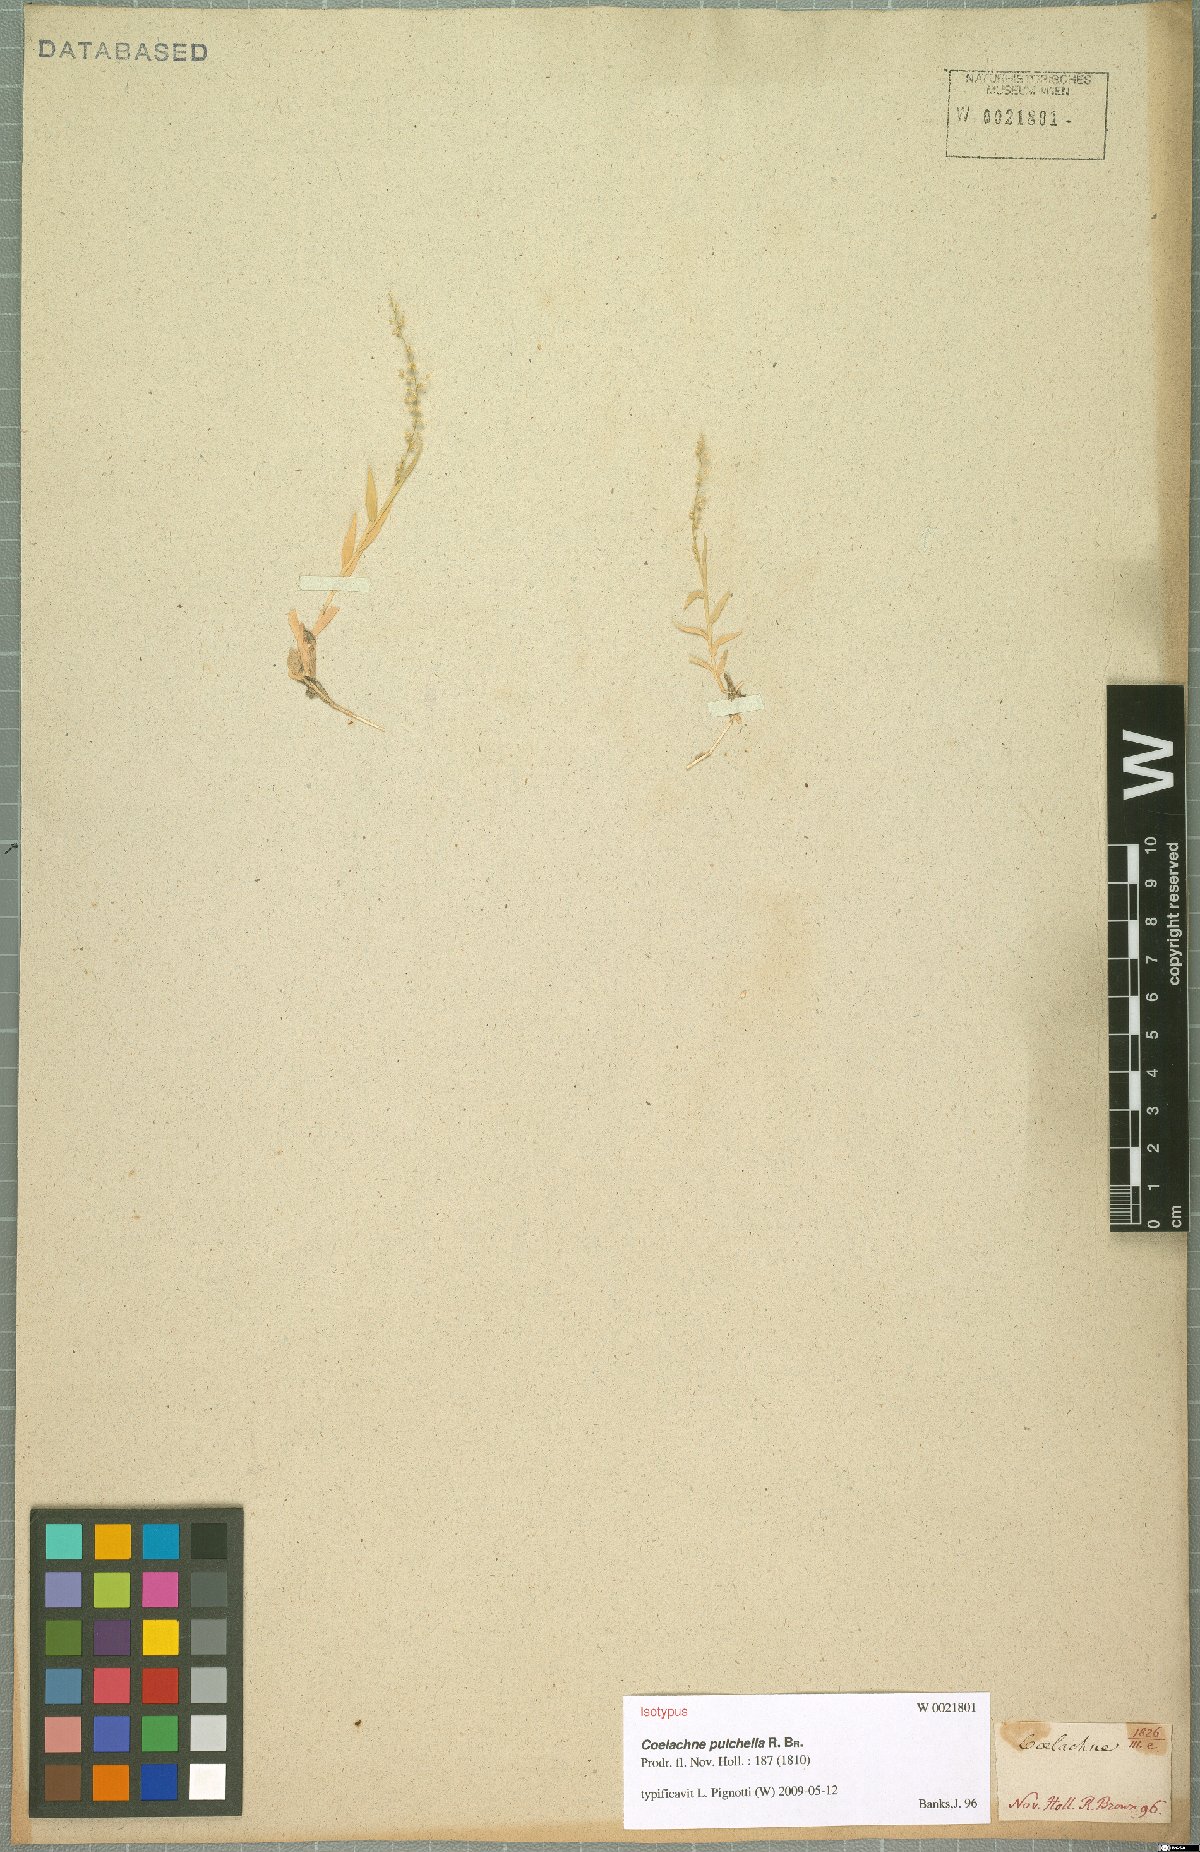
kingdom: Plantae
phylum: Tracheophyta
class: Liliopsida
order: Poales
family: Poaceae
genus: Coelachne
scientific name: Coelachne pulchella
